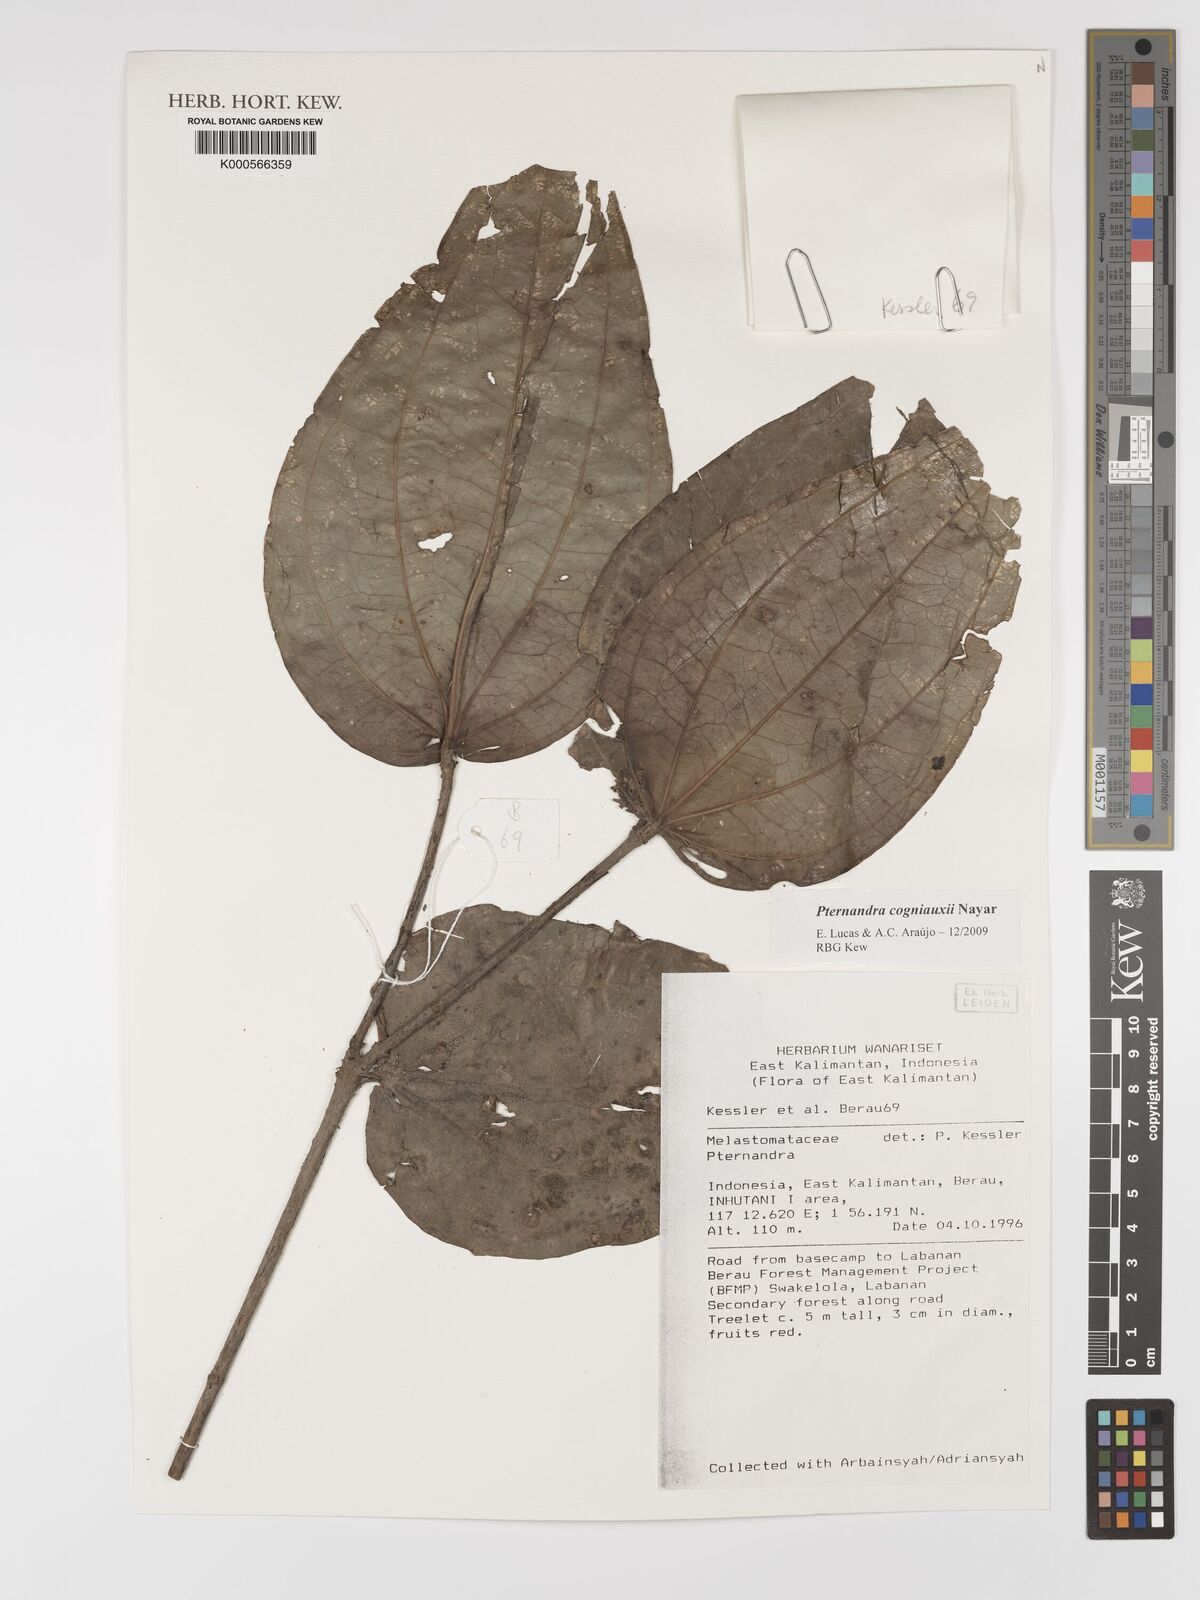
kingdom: Plantae
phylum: Tracheophyta
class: Magnoliopsida
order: Myrtales
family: Melastomataceae
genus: Pternandra
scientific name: Pternandra cogniauxii
